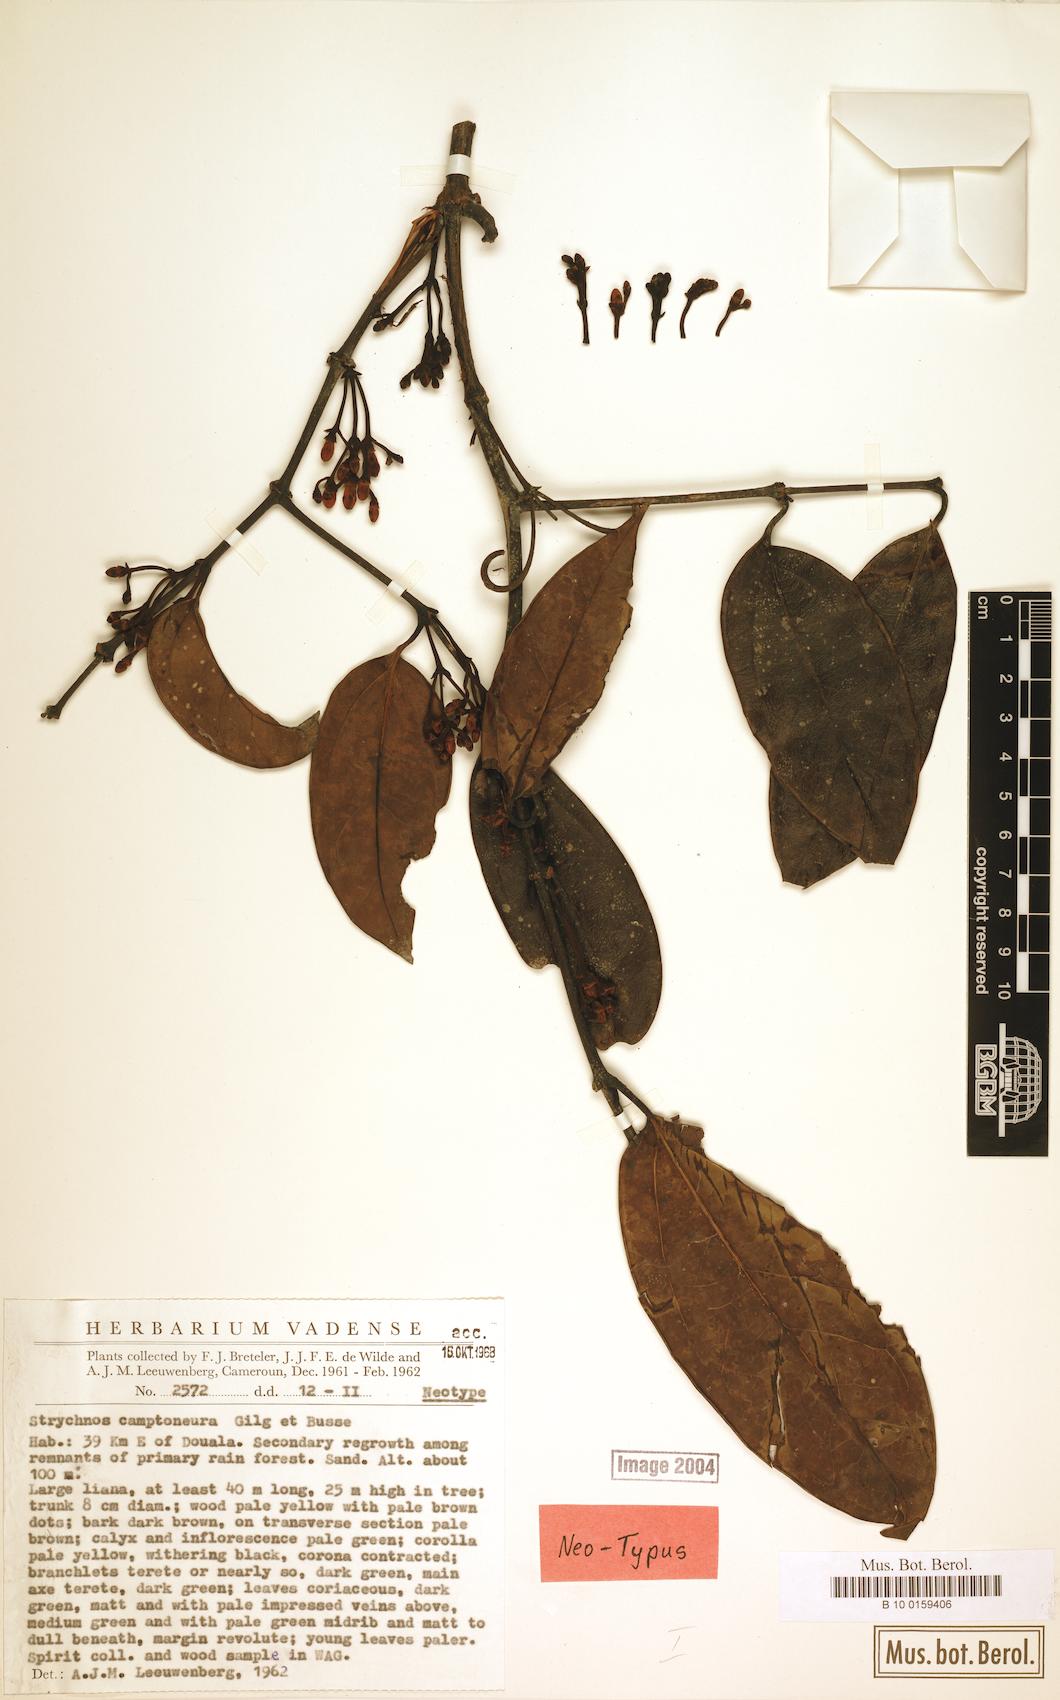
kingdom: Plantae
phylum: Tracheophyta
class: Magnoliopsida
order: Gentianales
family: Loganiaceae
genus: Strychnos
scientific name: Strychnos camptoneura
